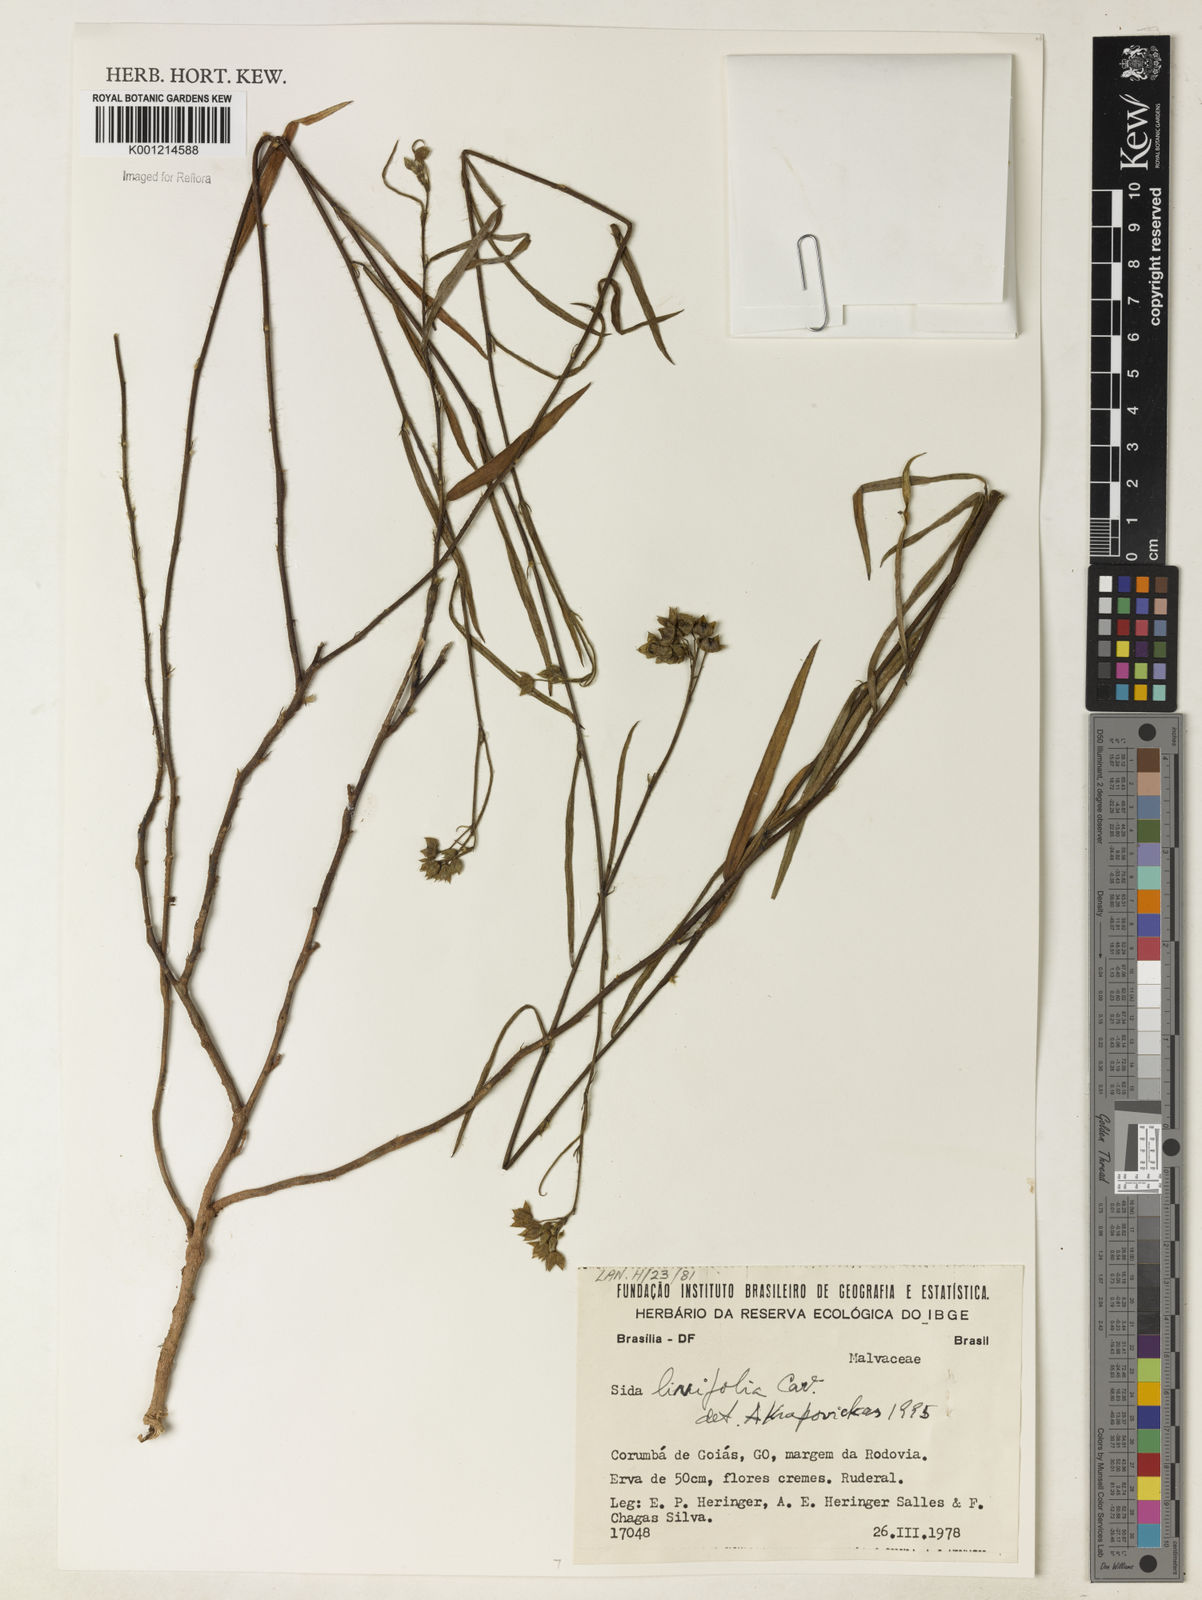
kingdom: Plantae
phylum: Tracheophyta
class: Magnoliopsida
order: Malvales
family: Malvaceae
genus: Sida
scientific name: Sida linifolia
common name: Flaxleaf fanpetals
